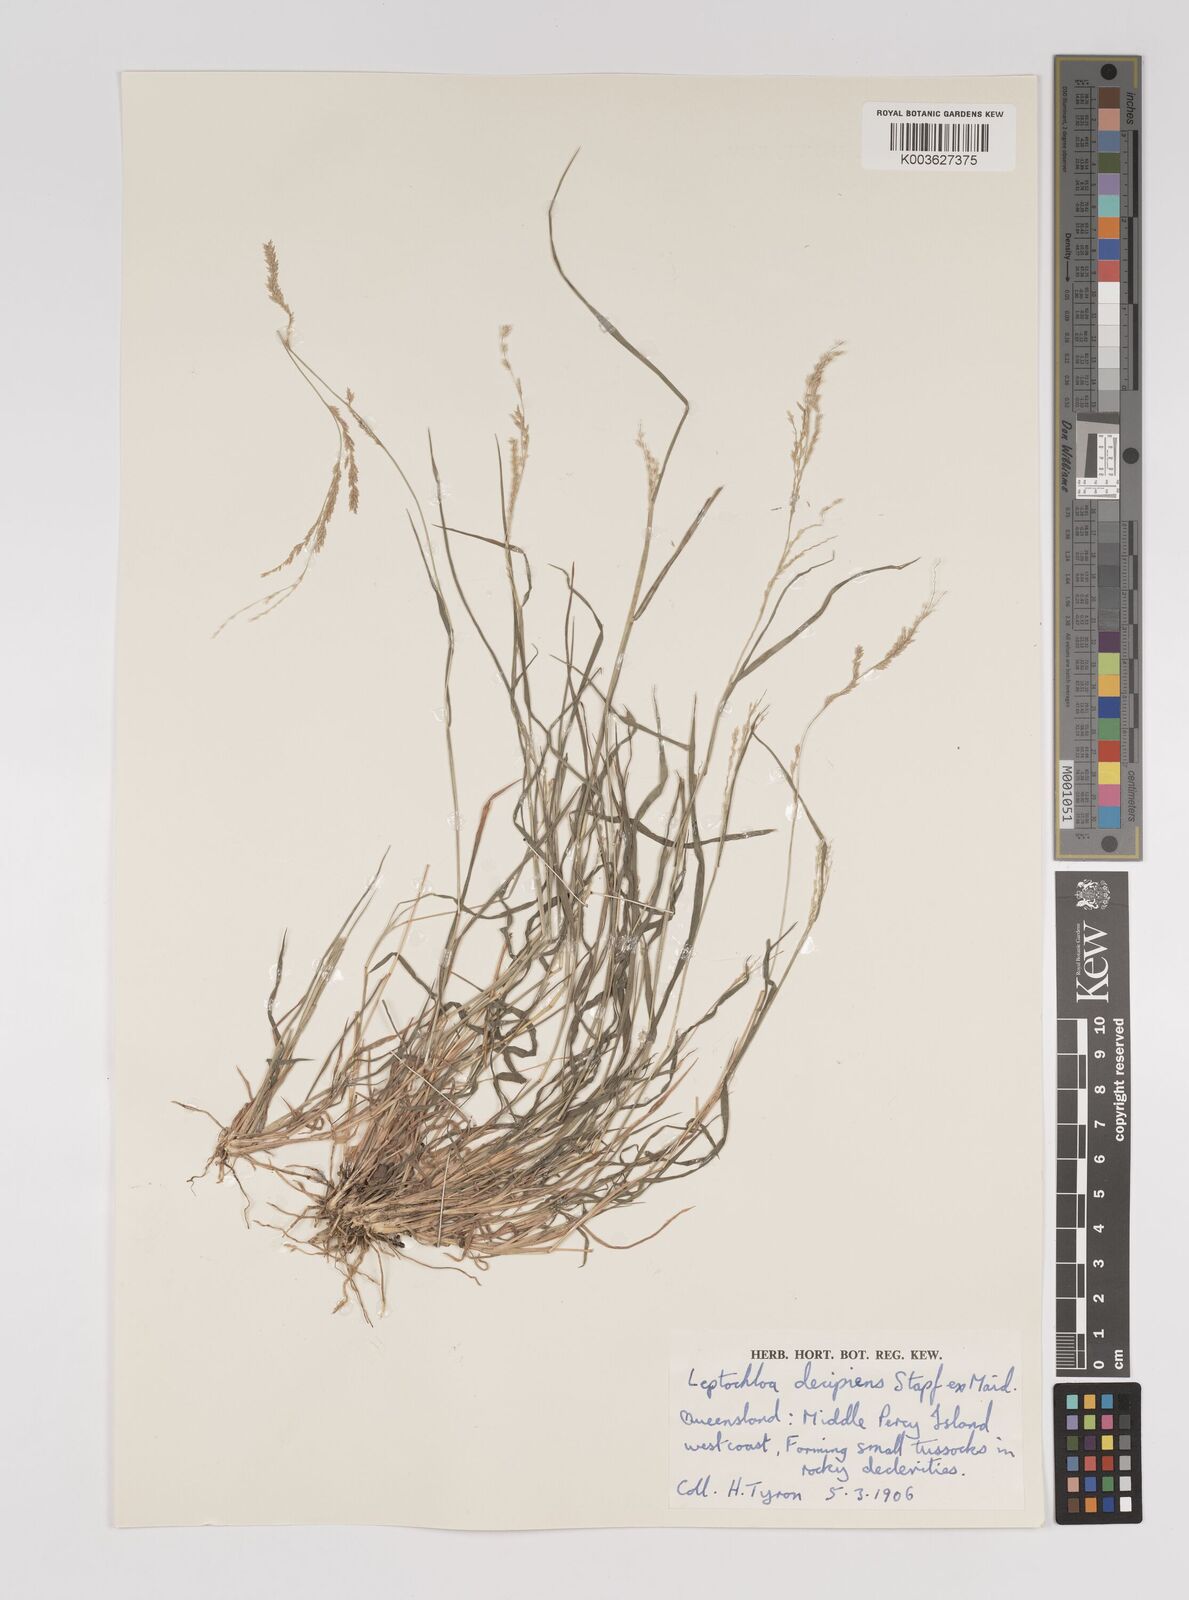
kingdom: Plantae
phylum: Tracheophyta
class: Liliopsida
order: Poales
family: Poaceae
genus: Leptochloa
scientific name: Leptochloa decipiens
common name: Australian sprangletop
